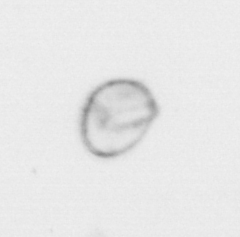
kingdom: Chromista
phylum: Myzozoa
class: Dinophyceae
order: Noctilucales
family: Noctilucaceae
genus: Noctiluca
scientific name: Noctiluca scintillans
